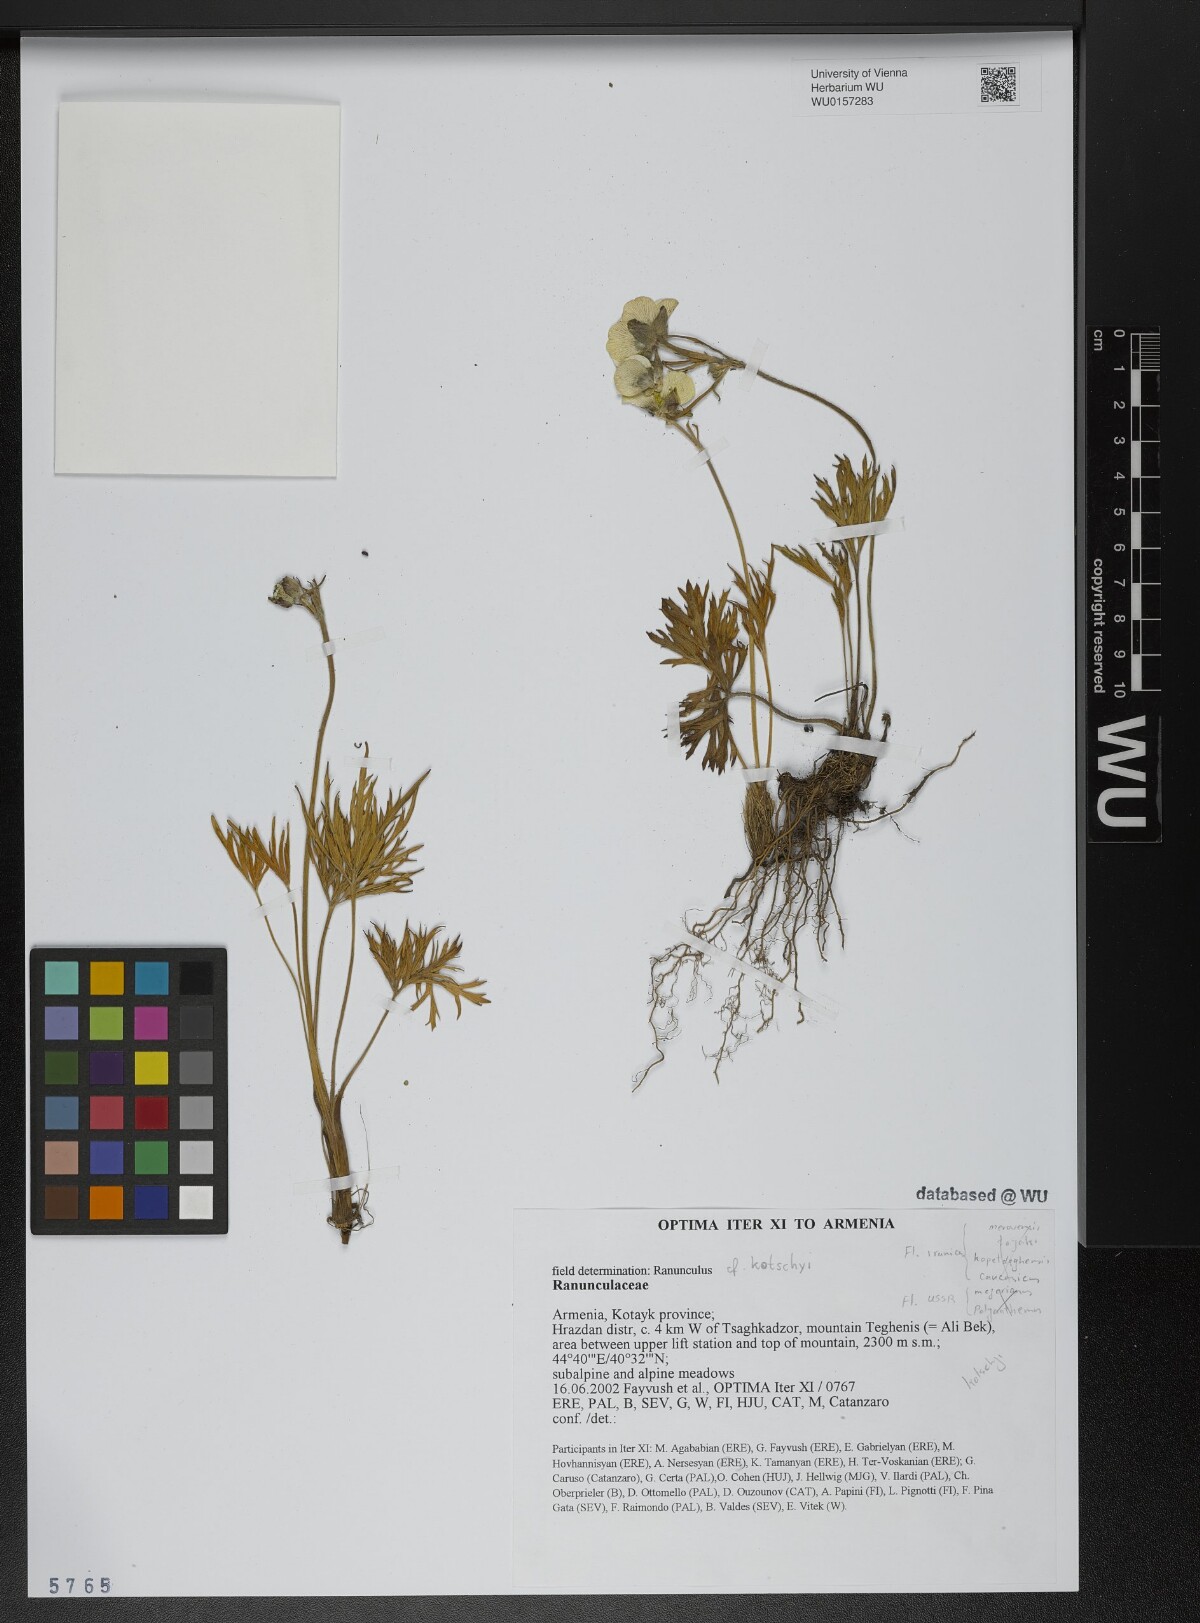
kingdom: Plantae
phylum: Tracheophyta
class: Magnoliopsida
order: Ranunculales
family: Ranunculaceae
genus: Ranunculus
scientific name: Ranunculus kotschyi
